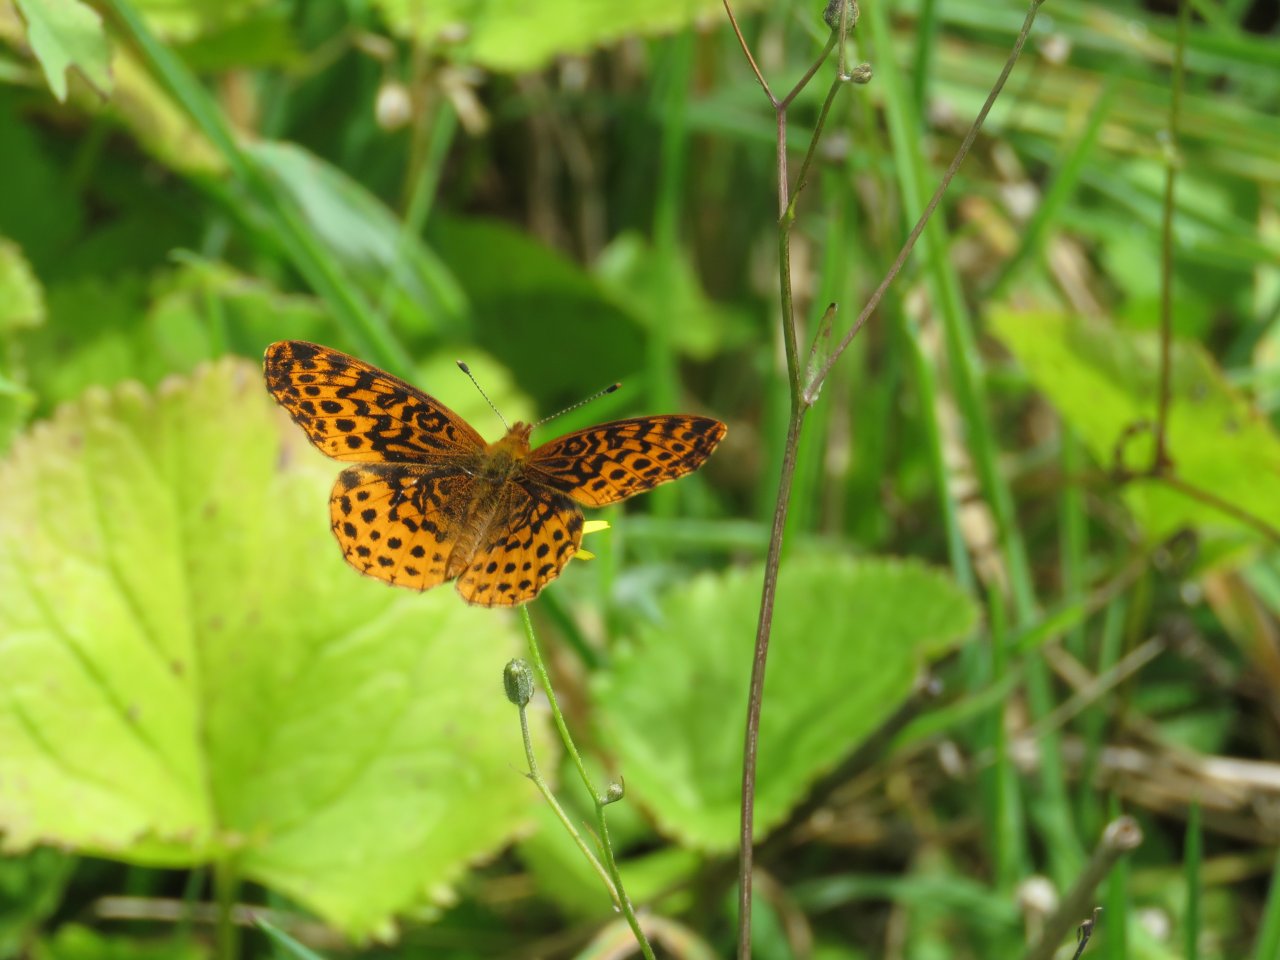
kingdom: Animalia
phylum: Arthropoda
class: Insecta
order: Lepidoptera
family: Nymphalidae
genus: Clossiana
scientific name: Clossiana toddi
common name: Meadow Fritillary
